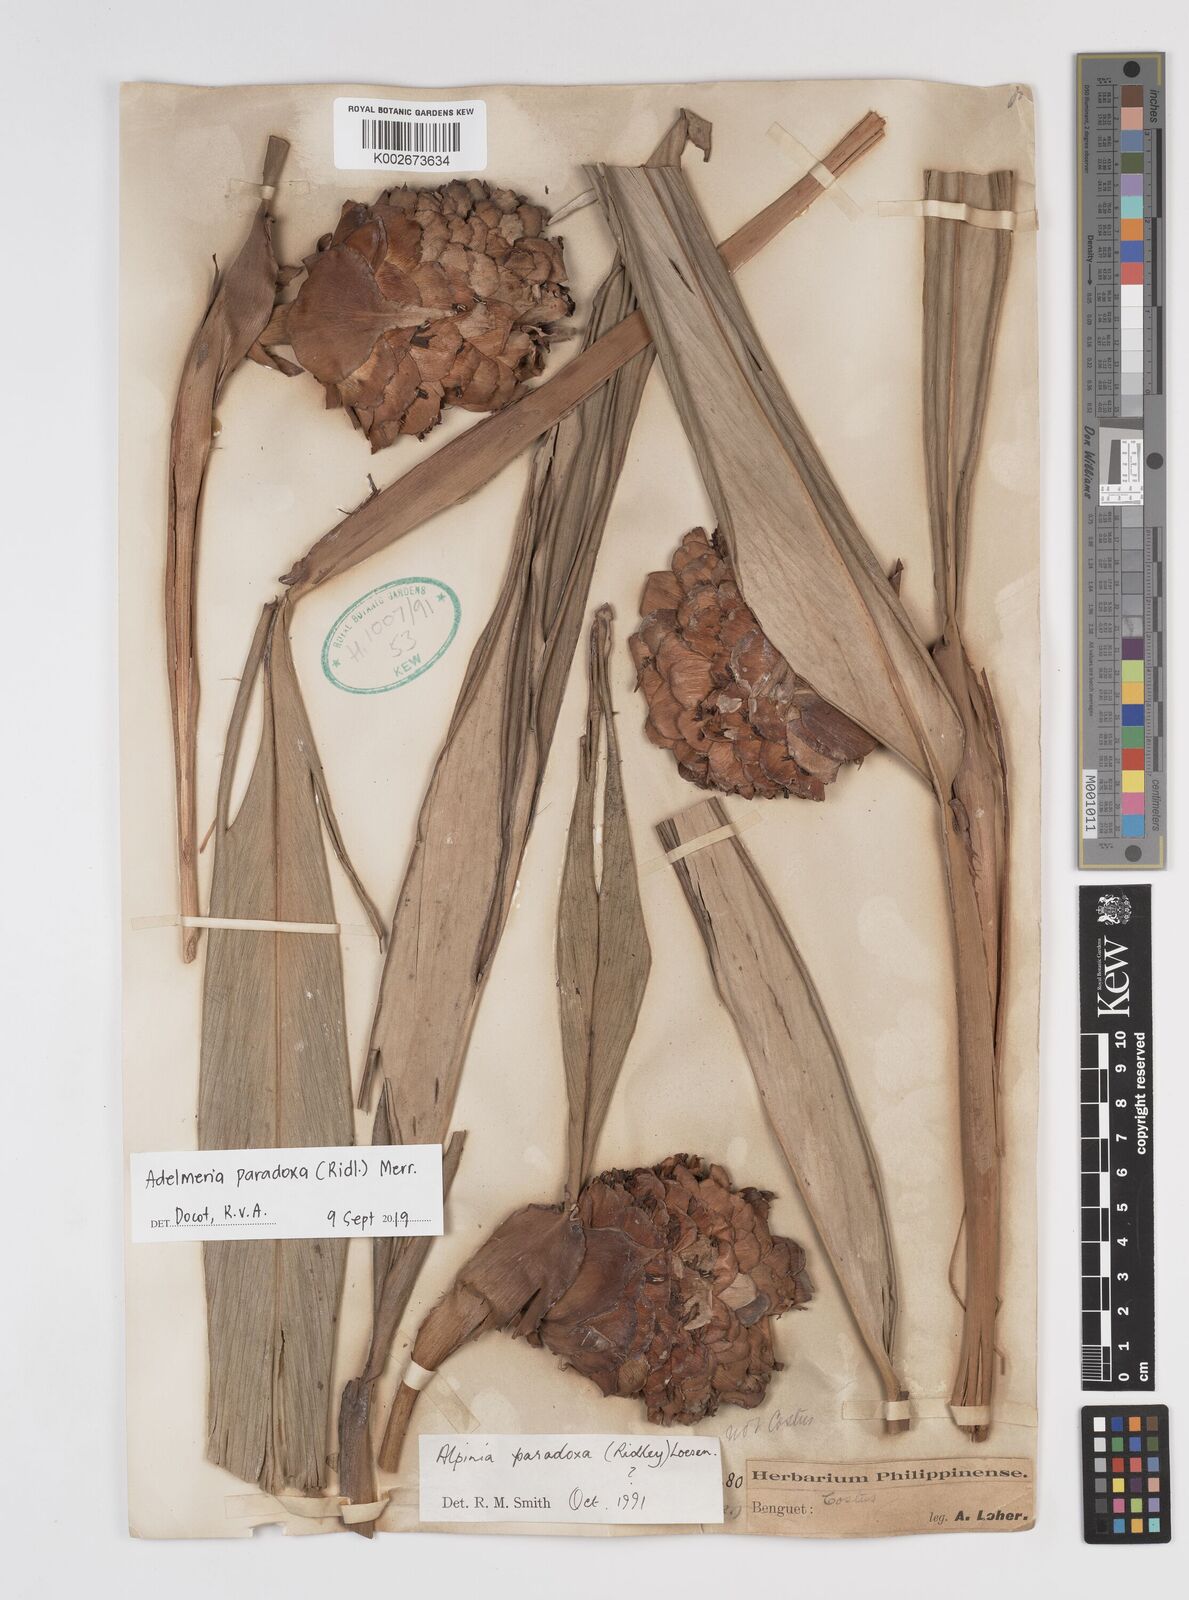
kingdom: Plantae
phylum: Tracheophyta
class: Liliopsida
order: Zingiberales
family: Zingiberaceae
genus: Adelmeria
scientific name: Adelmeria paradoxa
